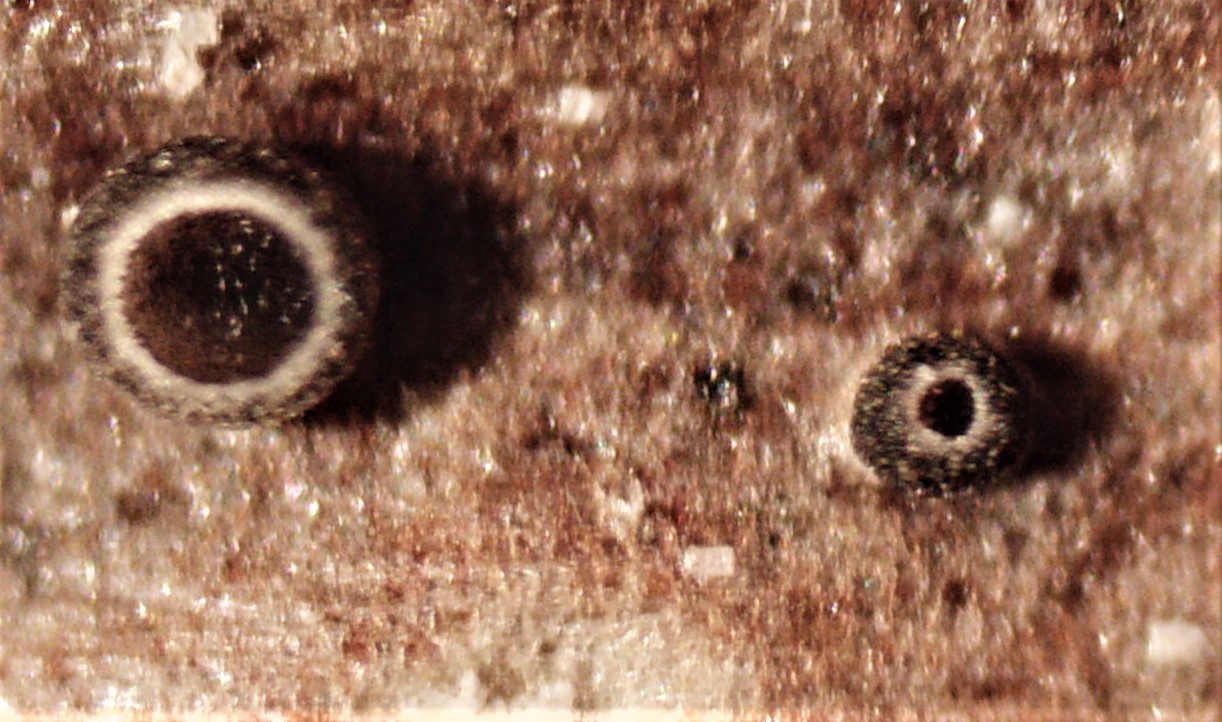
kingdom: Fungi
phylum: Ascomycota
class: Leotiomycetes
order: Helotiales
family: Ploettnerulaceae
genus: Pyrenopeziza
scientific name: Pyrenopeziza rubi
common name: hindbær-kerneskive
